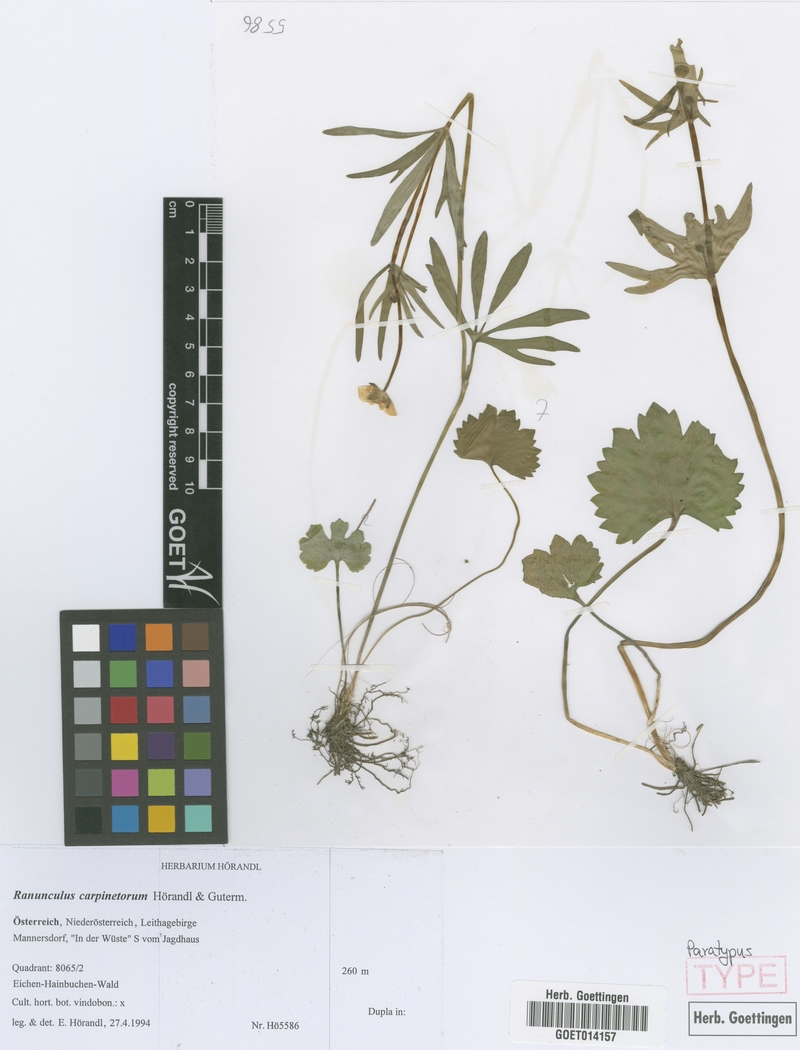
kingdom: Plantae
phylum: Tracheophyta
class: Magnoliopsida
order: Ranunculales
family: Ranunculaceae
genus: Ranunculus
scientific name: Ranunculus carpinetorum
